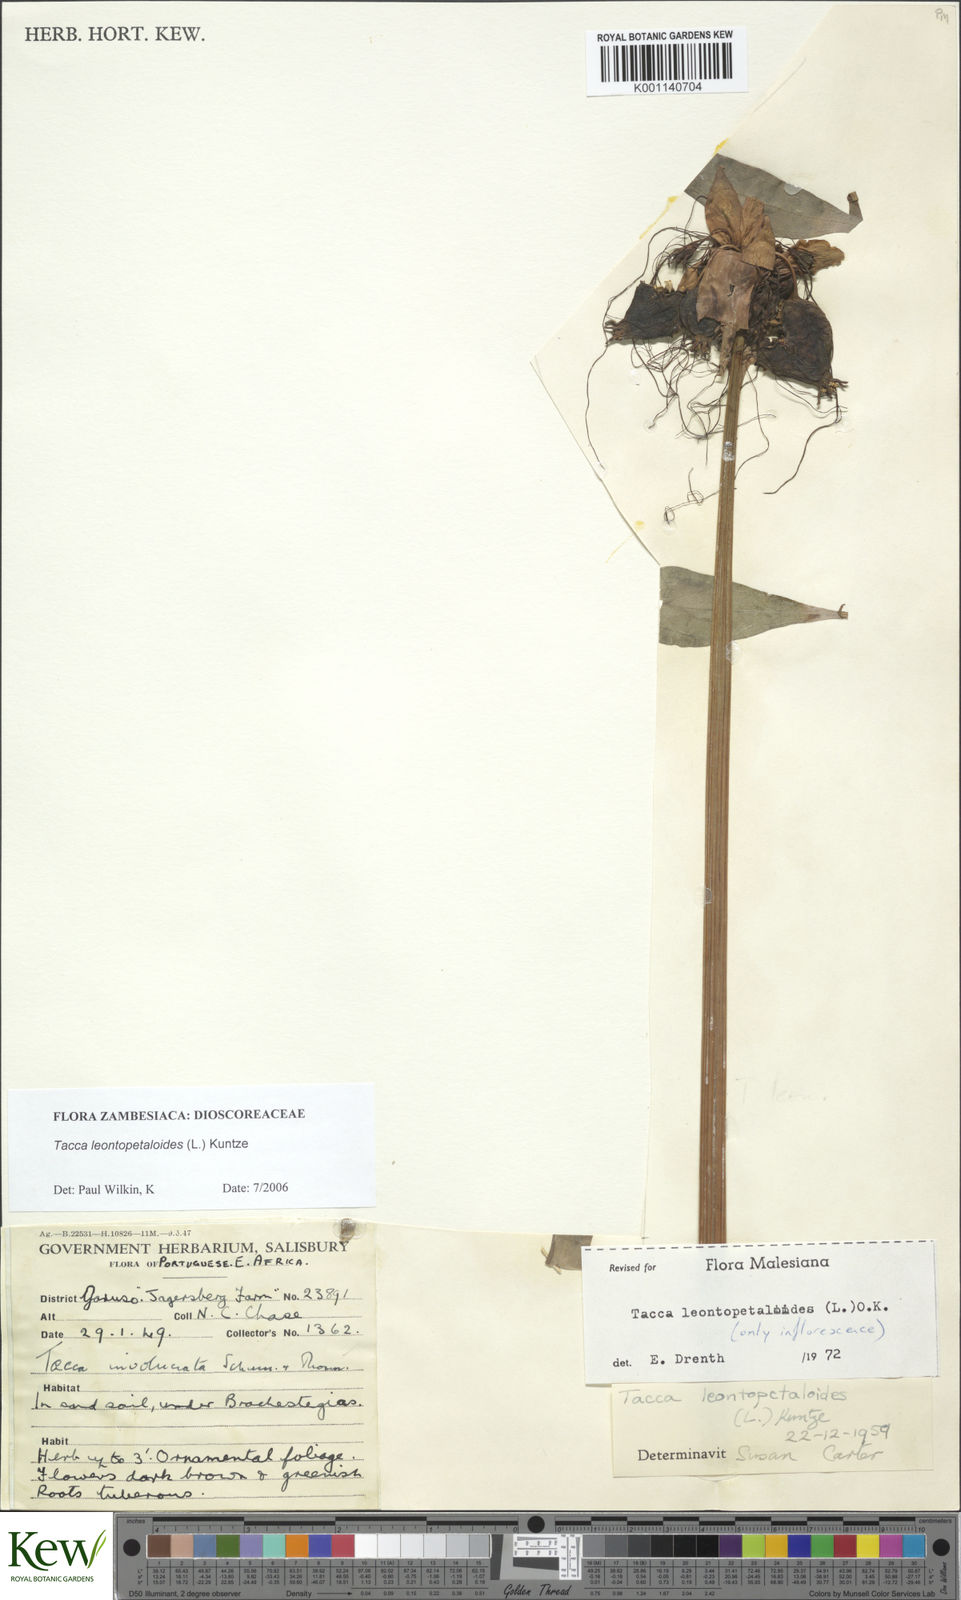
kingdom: Plantae
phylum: Tracheophyta
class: Liliopsida
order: Dioscoreales
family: Dioscoreaceae
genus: Tacca
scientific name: Tacca leontopetaloides
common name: Arrowroot
